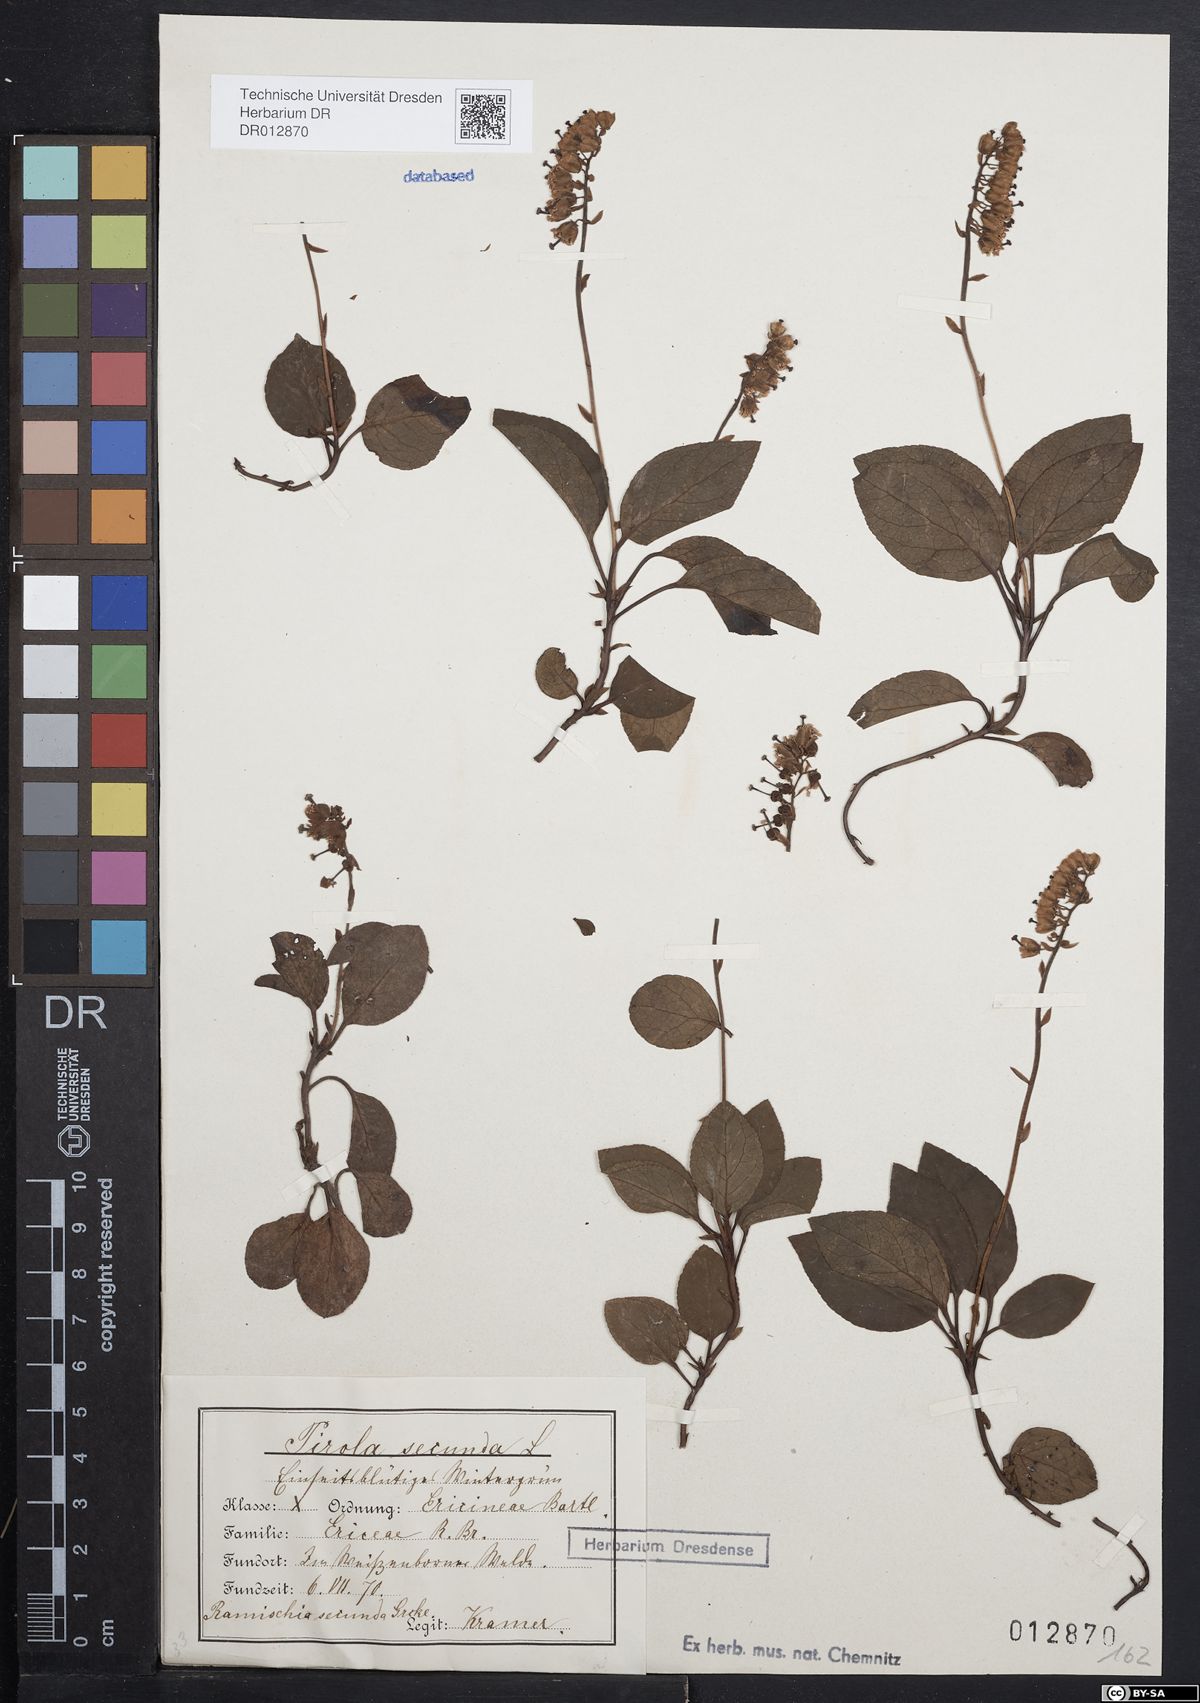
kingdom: Plantae
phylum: Tracheophyta
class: Magnoliopsida
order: Ericales
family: Ericaceae
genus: Orthilia
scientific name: Orthilia secunda
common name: One-sided orthilia
